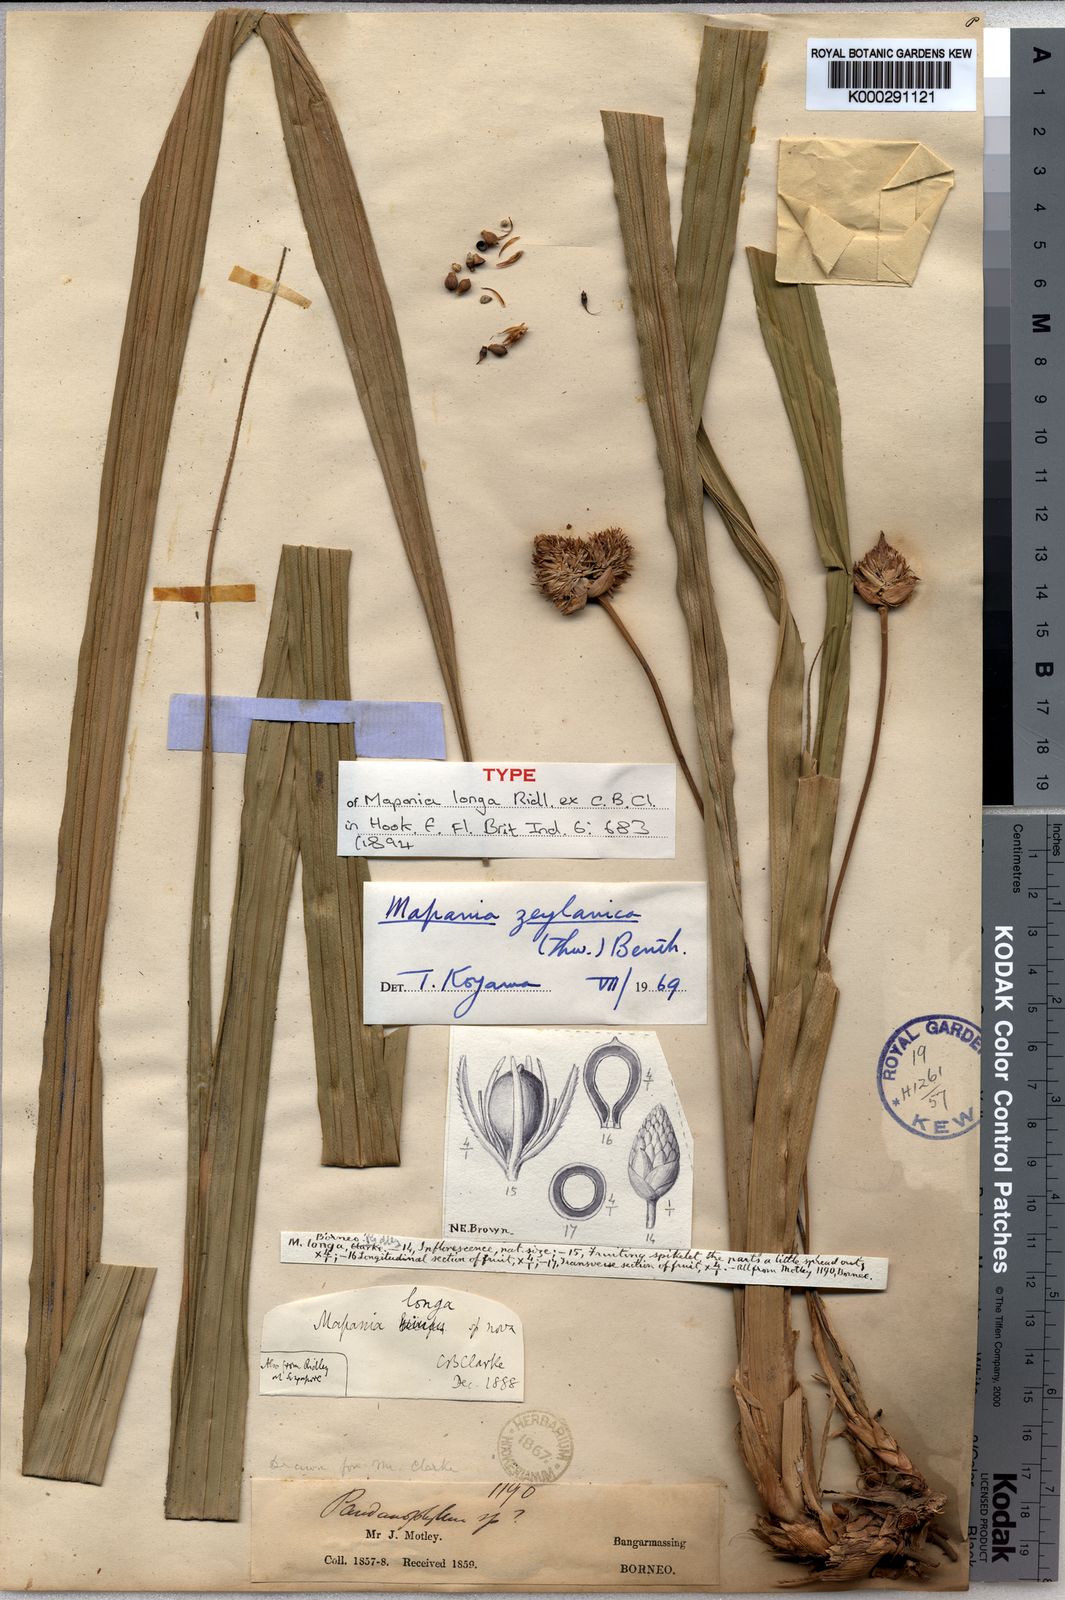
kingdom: Plantae
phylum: Tracheophyta
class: Liliopsida
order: Poales
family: Cyperaceae
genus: Mapania
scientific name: Mapania enodis
